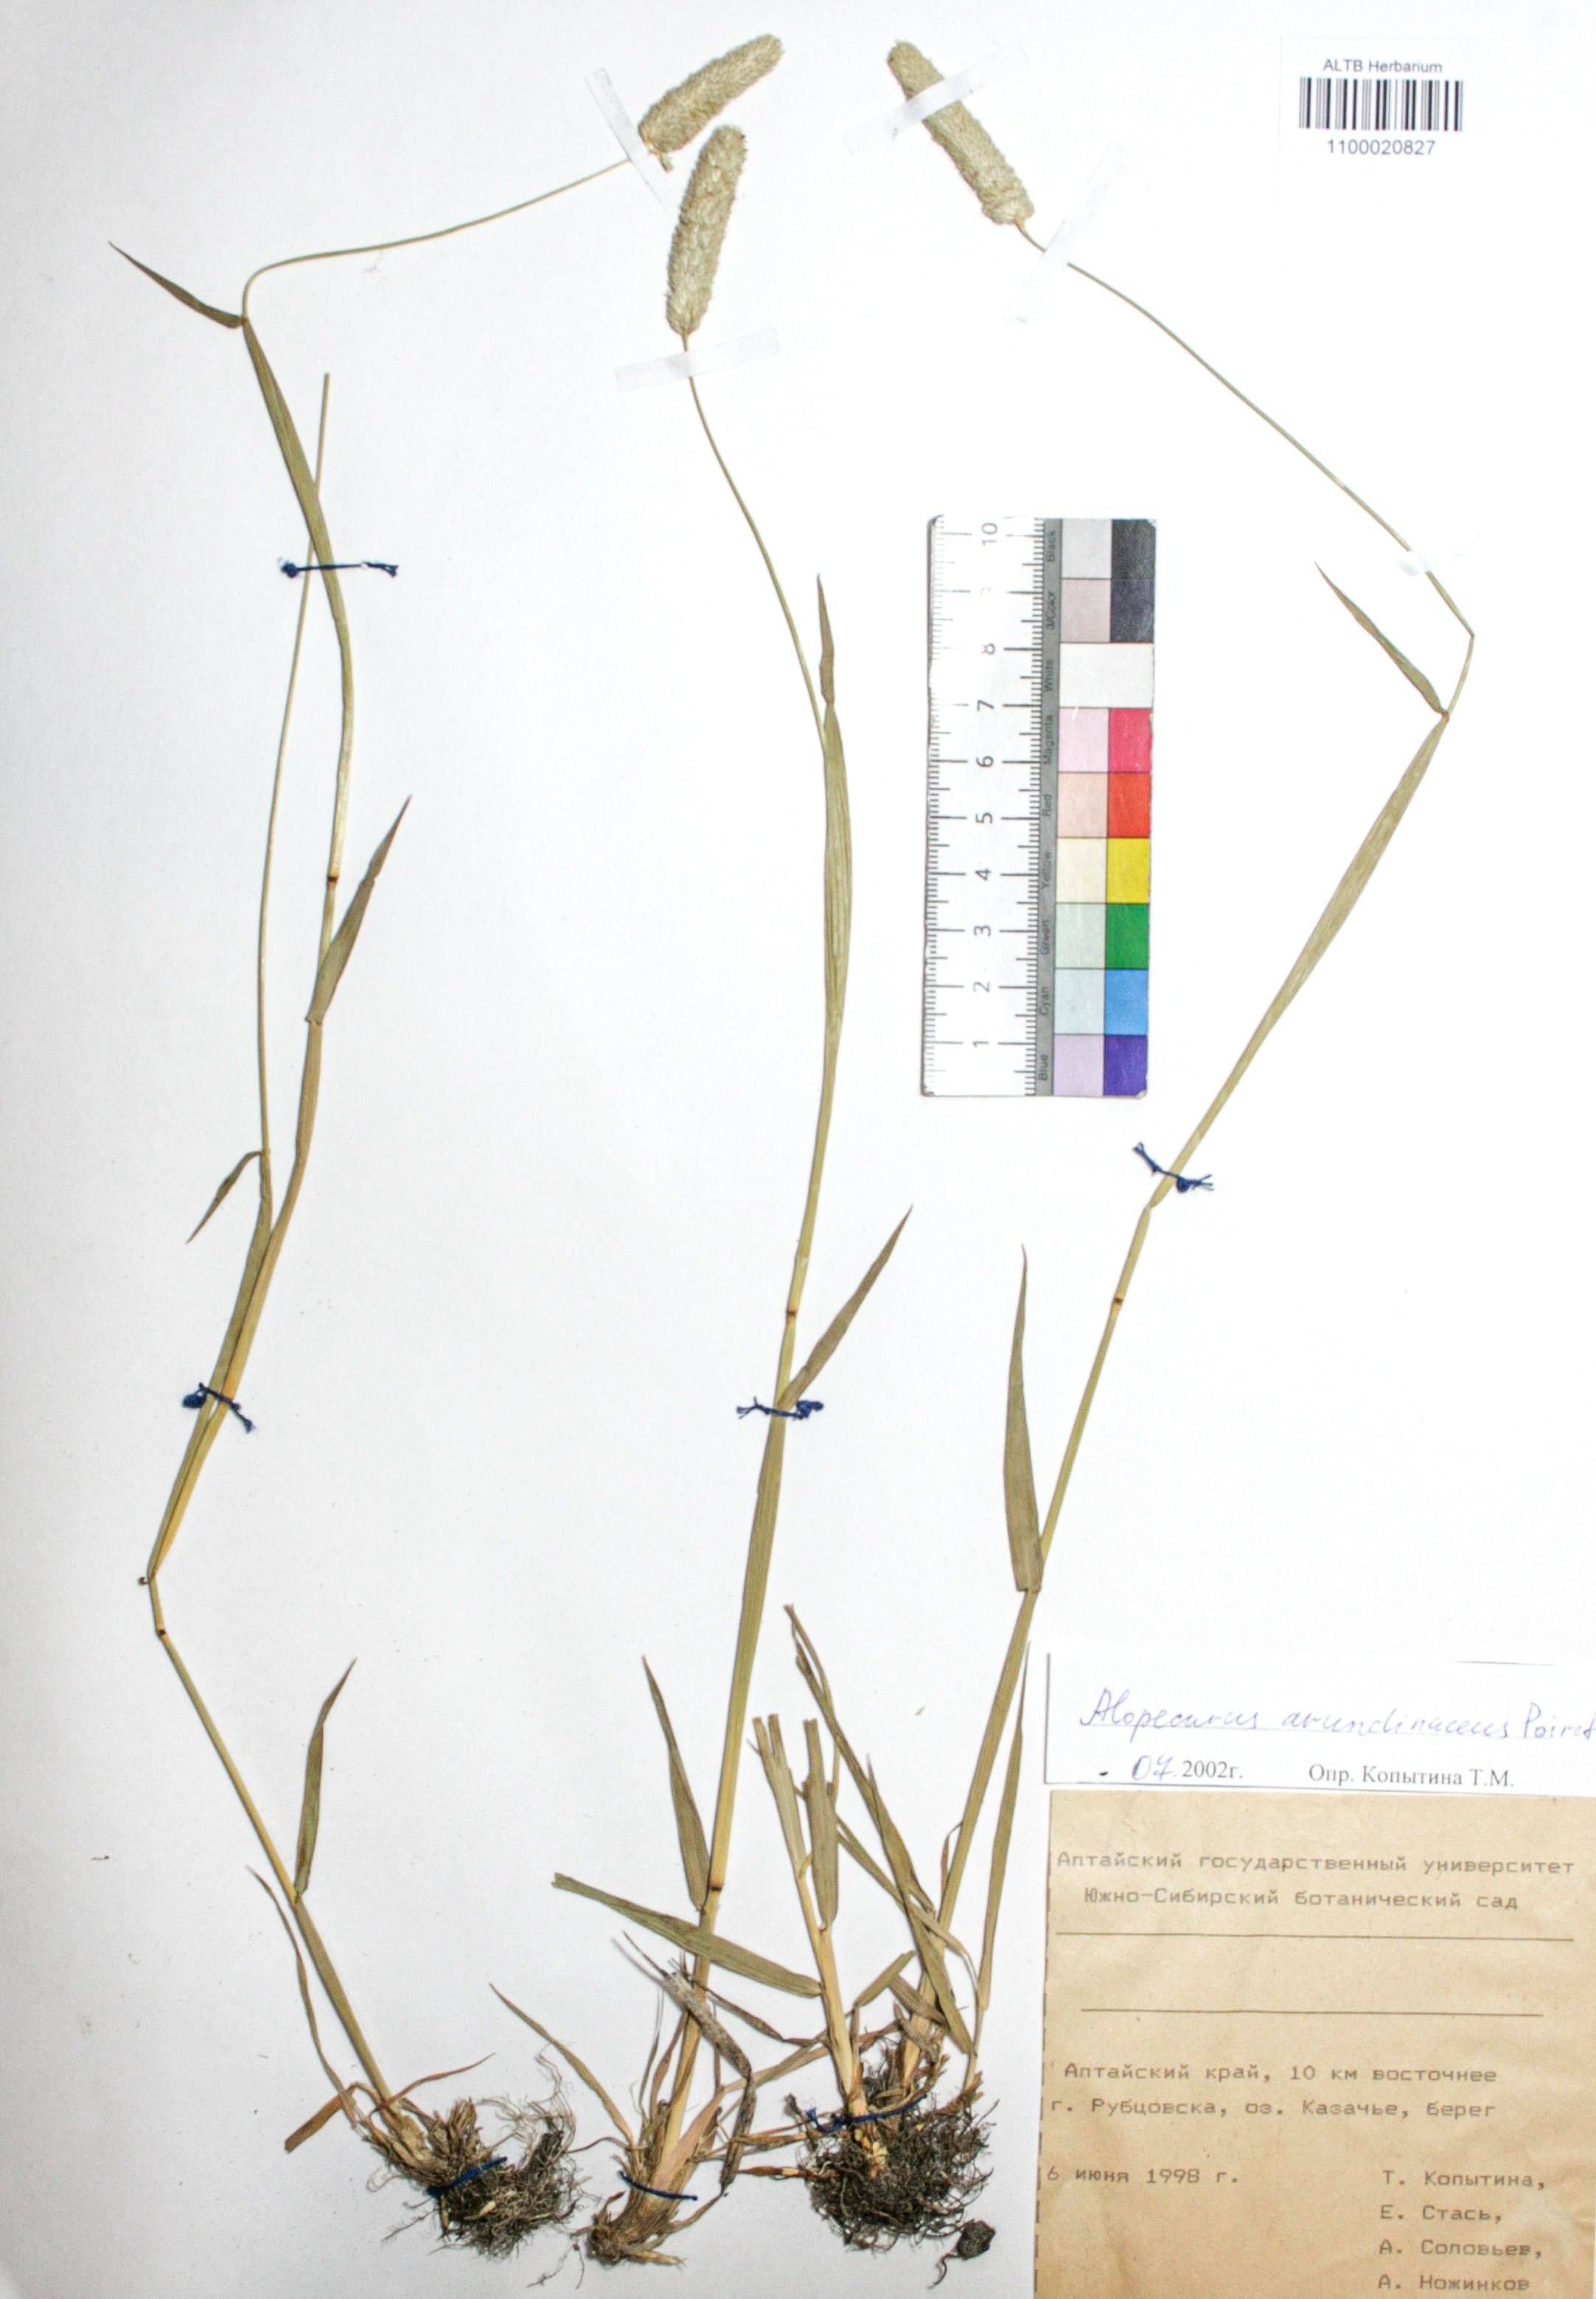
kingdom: Plantae
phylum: Tracheophyta
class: Liliopsida
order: Poales
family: Poaceae
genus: Alopecurus
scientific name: Alopecurus arundinaceus
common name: Creeping meadow foxtail
